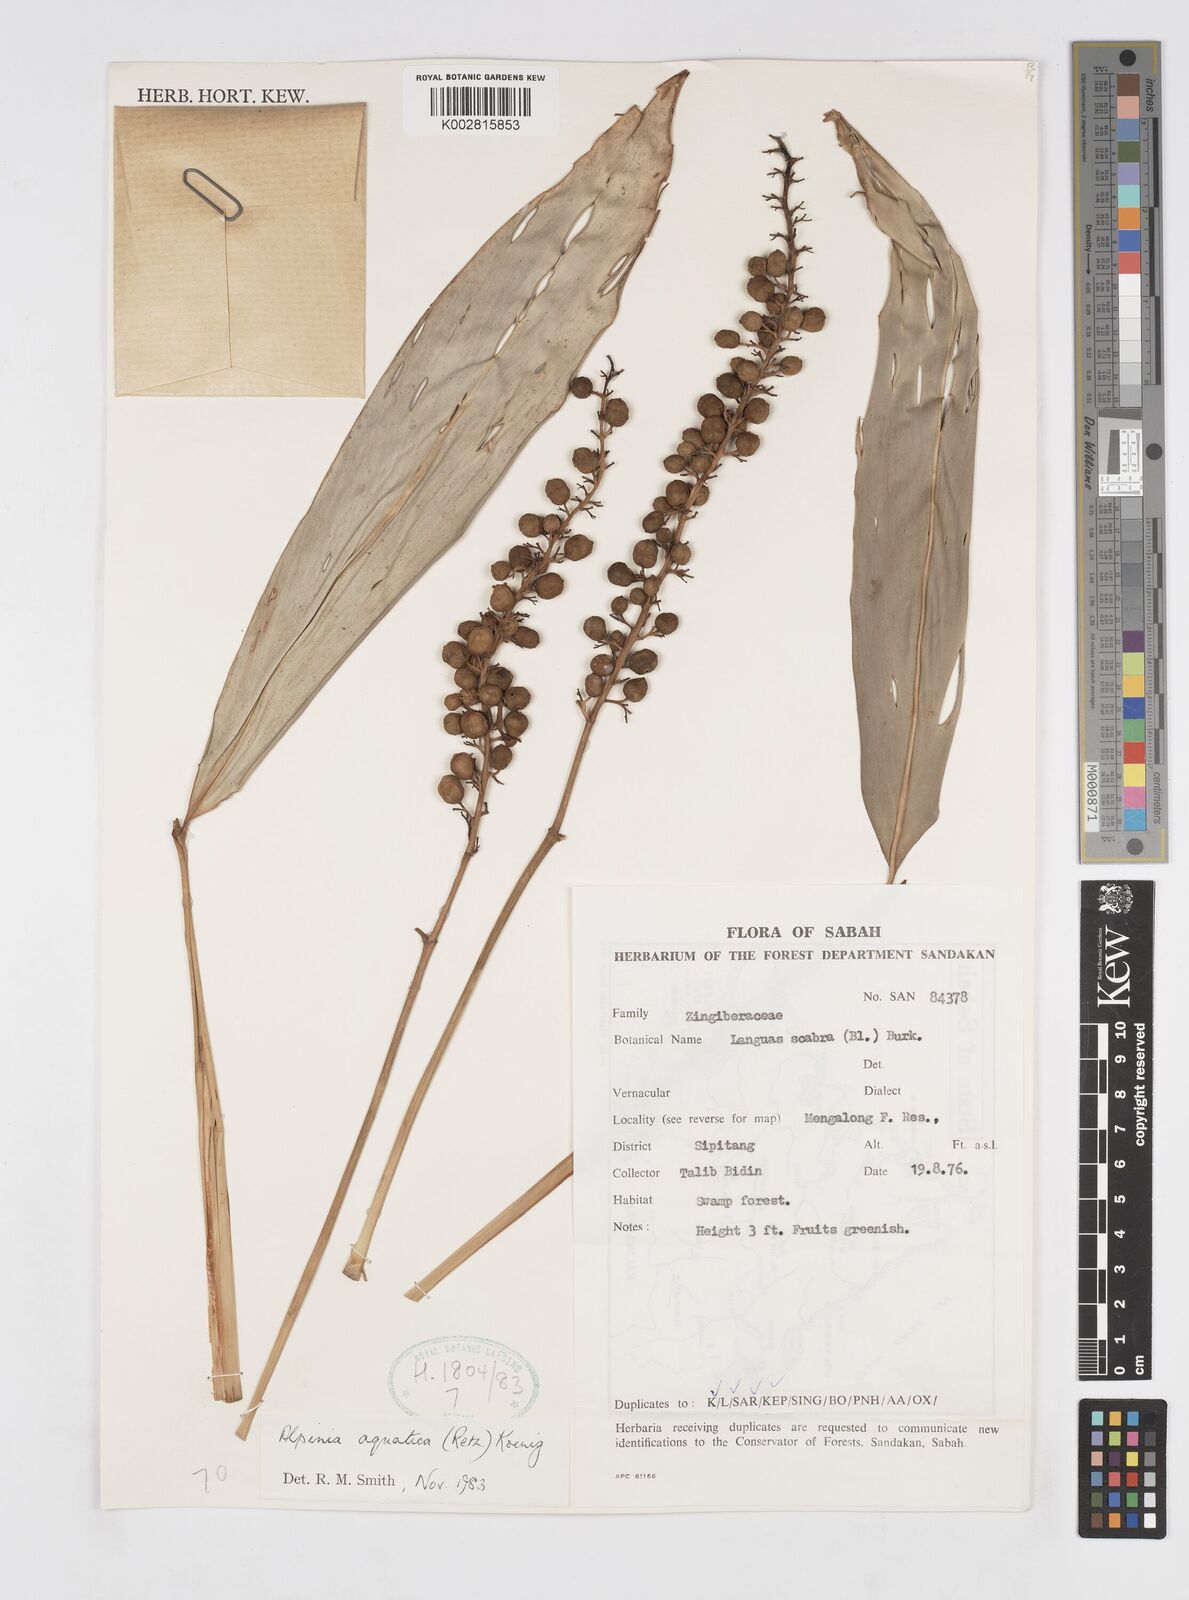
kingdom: Plantae
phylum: Tracheophyta
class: Liliopsida
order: Zingiberales
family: Zingiberaceae
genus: Alpinia
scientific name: Alpinia aquatica
